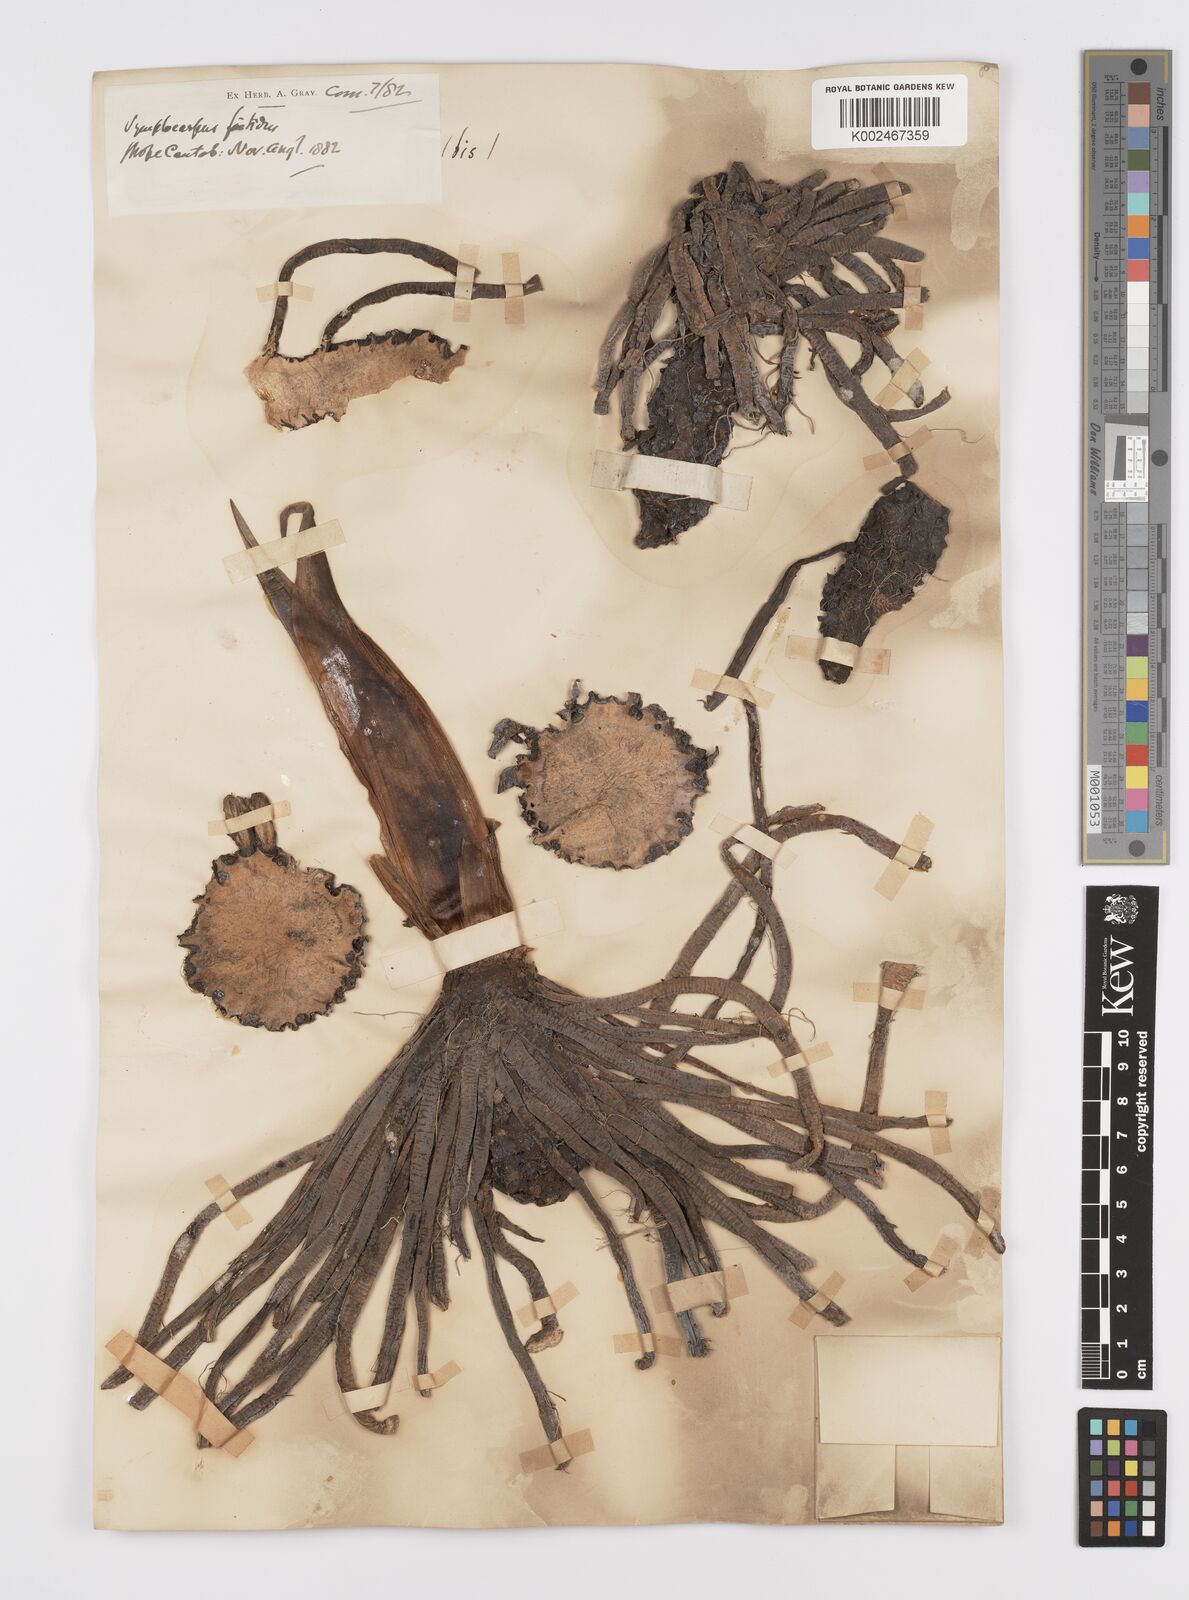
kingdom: Plantae
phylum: Tracheophyta
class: Liliopsida
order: Alismatales
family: Araceae
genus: Symplocarpus
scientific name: Symplocarpus foetidus
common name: Eastern skunk cabbage
